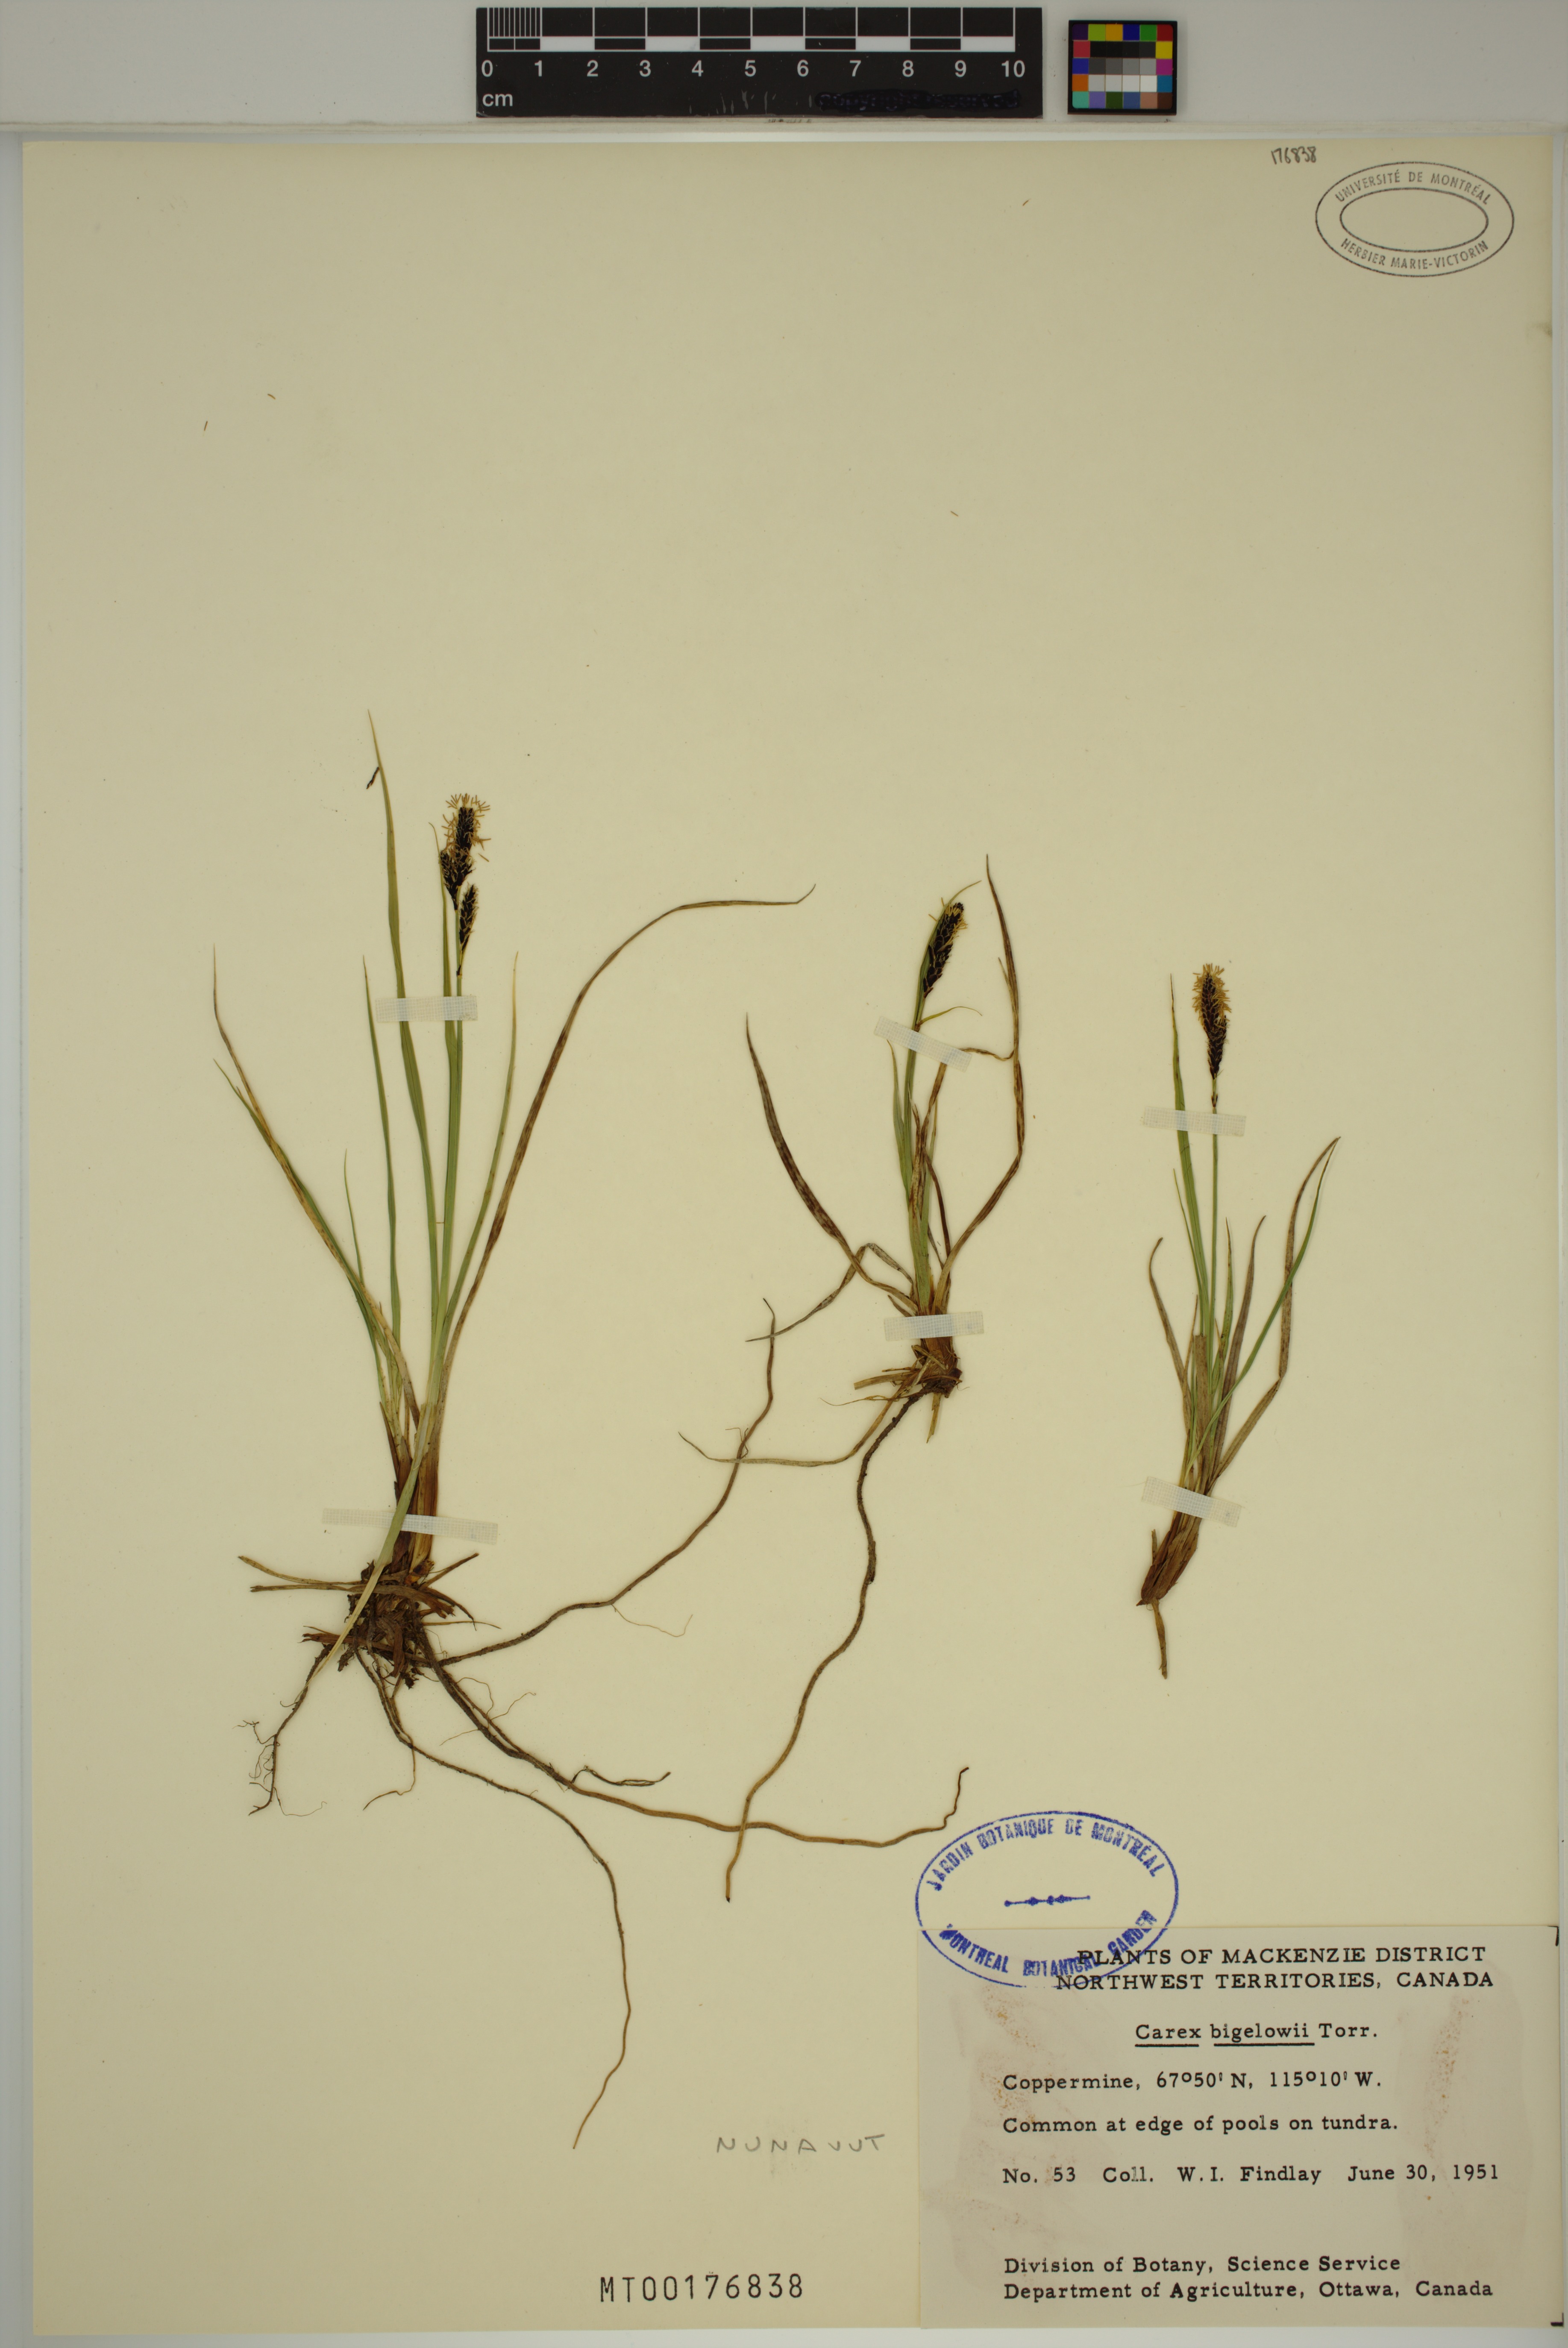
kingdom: Plantae
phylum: Tracheophyta
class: Liliopsida
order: Poales
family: Cyperaceae
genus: Carex
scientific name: Carex bigelowii
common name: Stiff sedge
